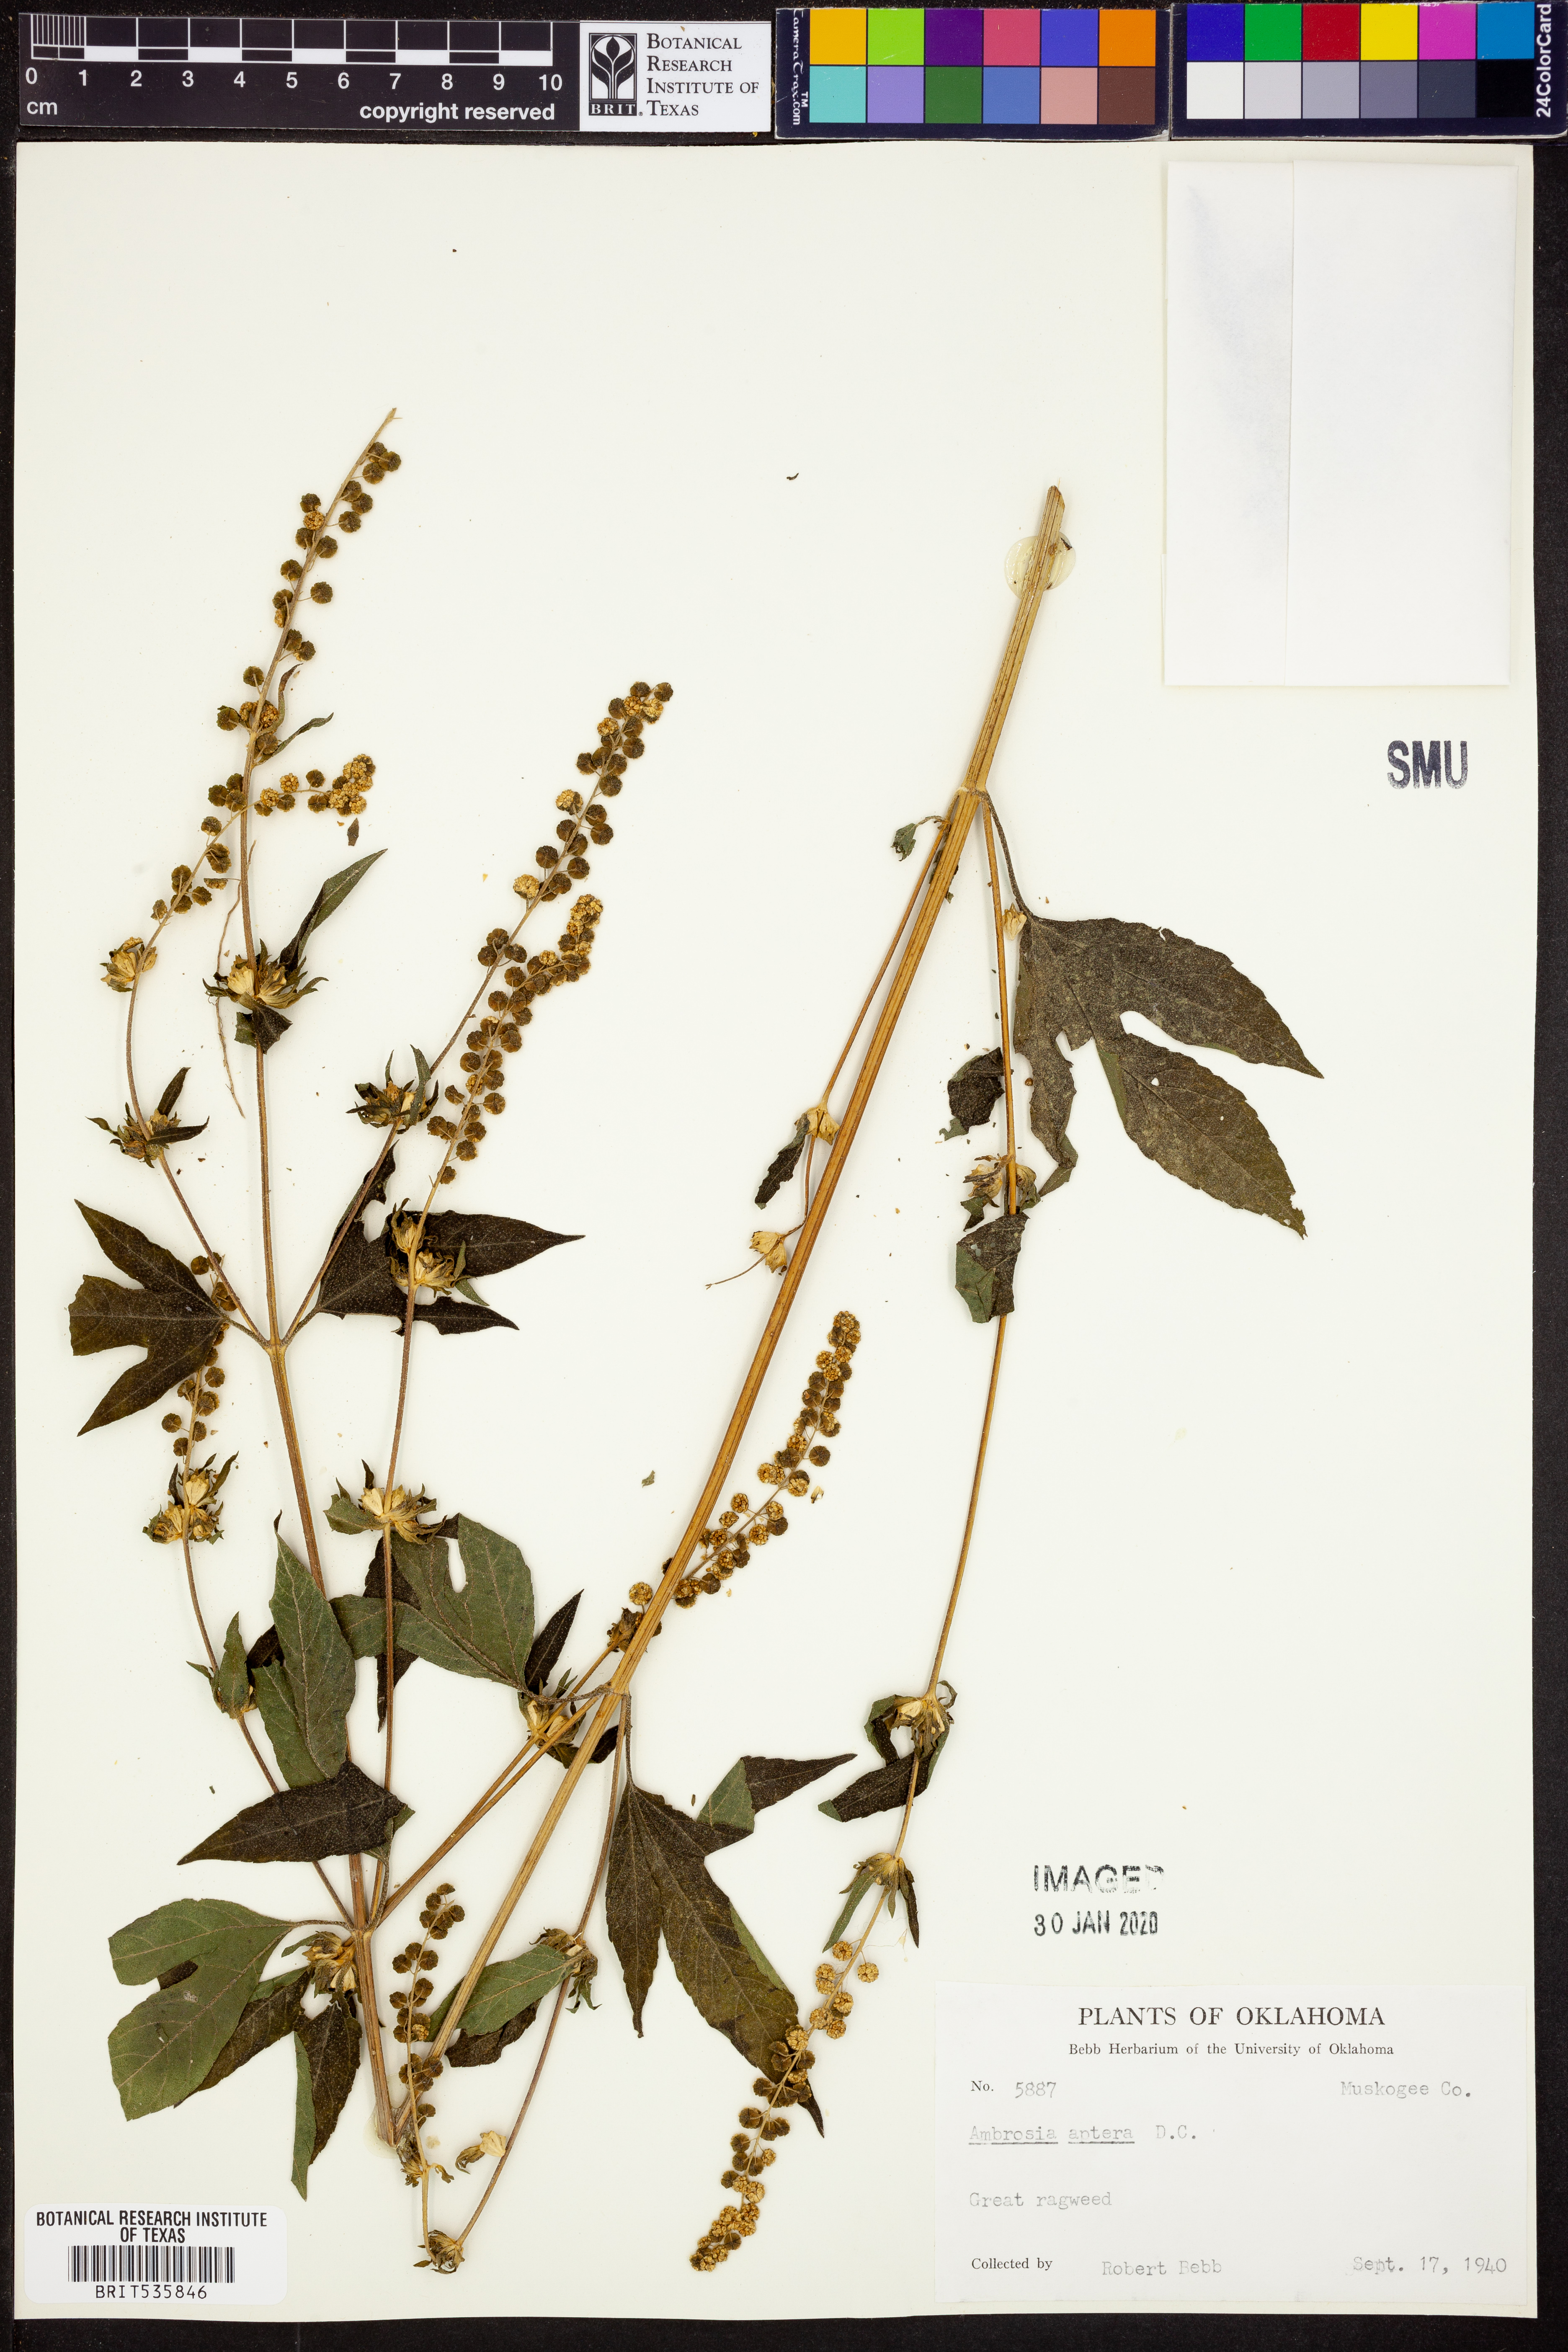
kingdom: Plantae
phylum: Tracheophyta
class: Magnoliopsida
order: Asterales
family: Asteraceae
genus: Ambrosia
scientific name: Ambrosia trifida
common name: Giant ragweed
